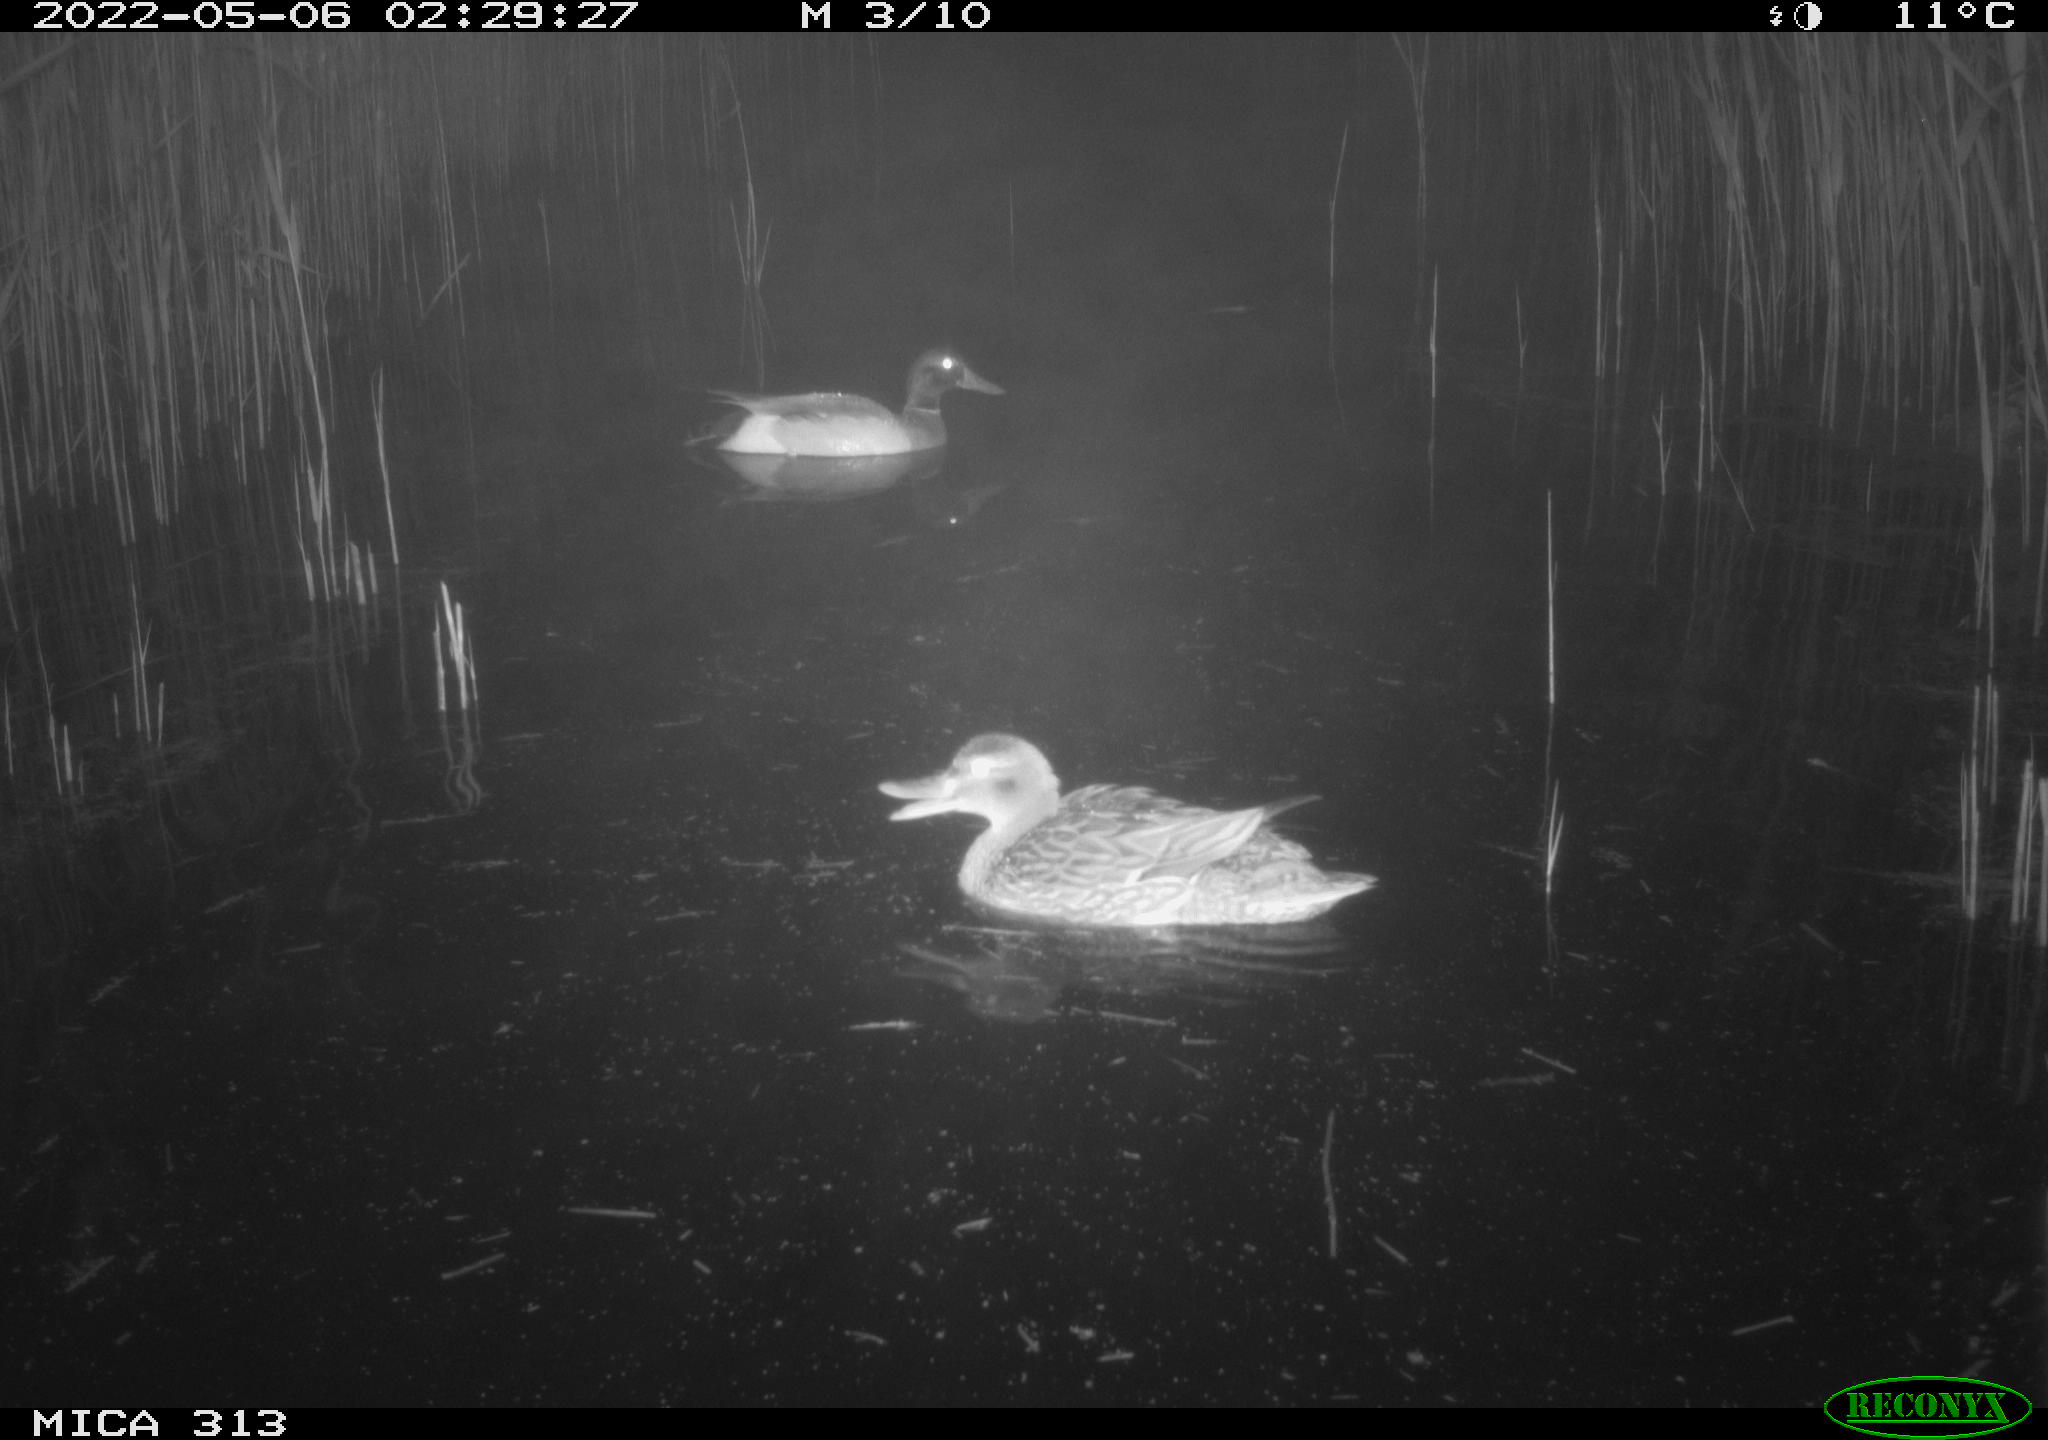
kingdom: Animalia
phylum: Chordata
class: Aves
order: Anseriformes
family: Anatidae
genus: Mareca
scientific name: Mareca strepera
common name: Gadwall
